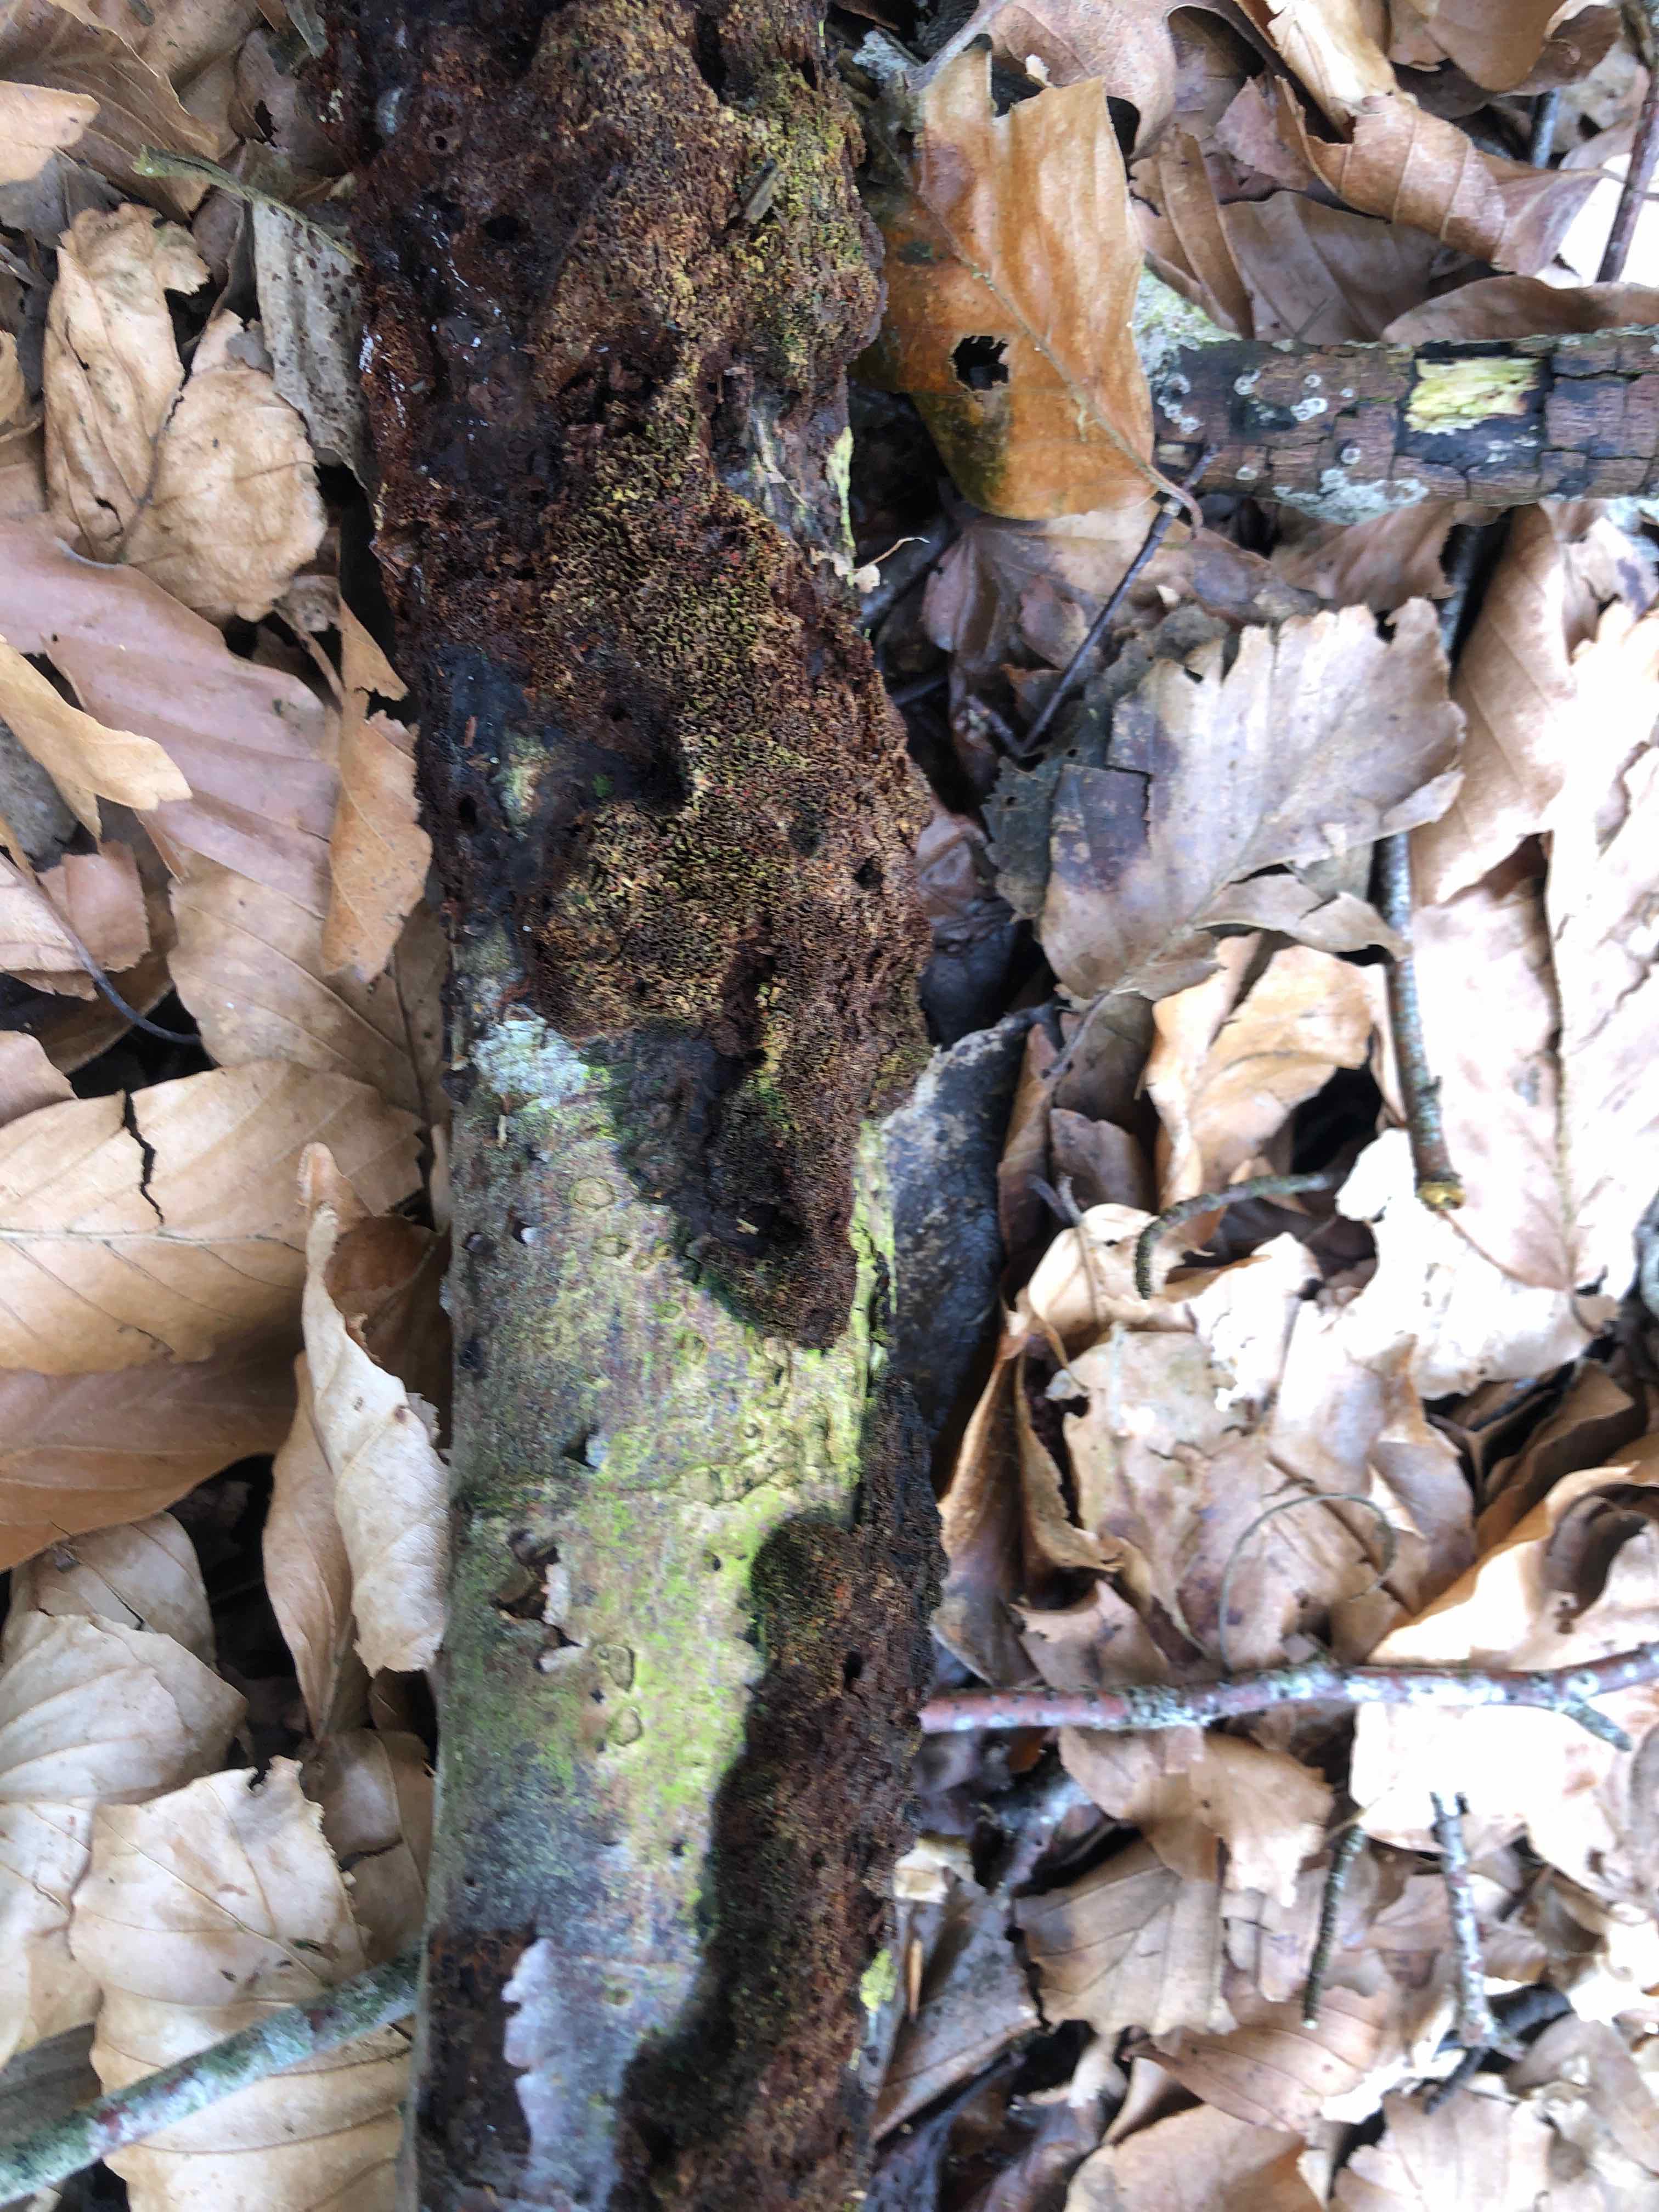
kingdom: Fungi
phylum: Basidiomycota
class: Agaricomycetes
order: Hymenochaetales
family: Hymenochaetaceae
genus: Mensularia
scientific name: Mensularia nodulosa
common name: bøge-spejlporesvamp
